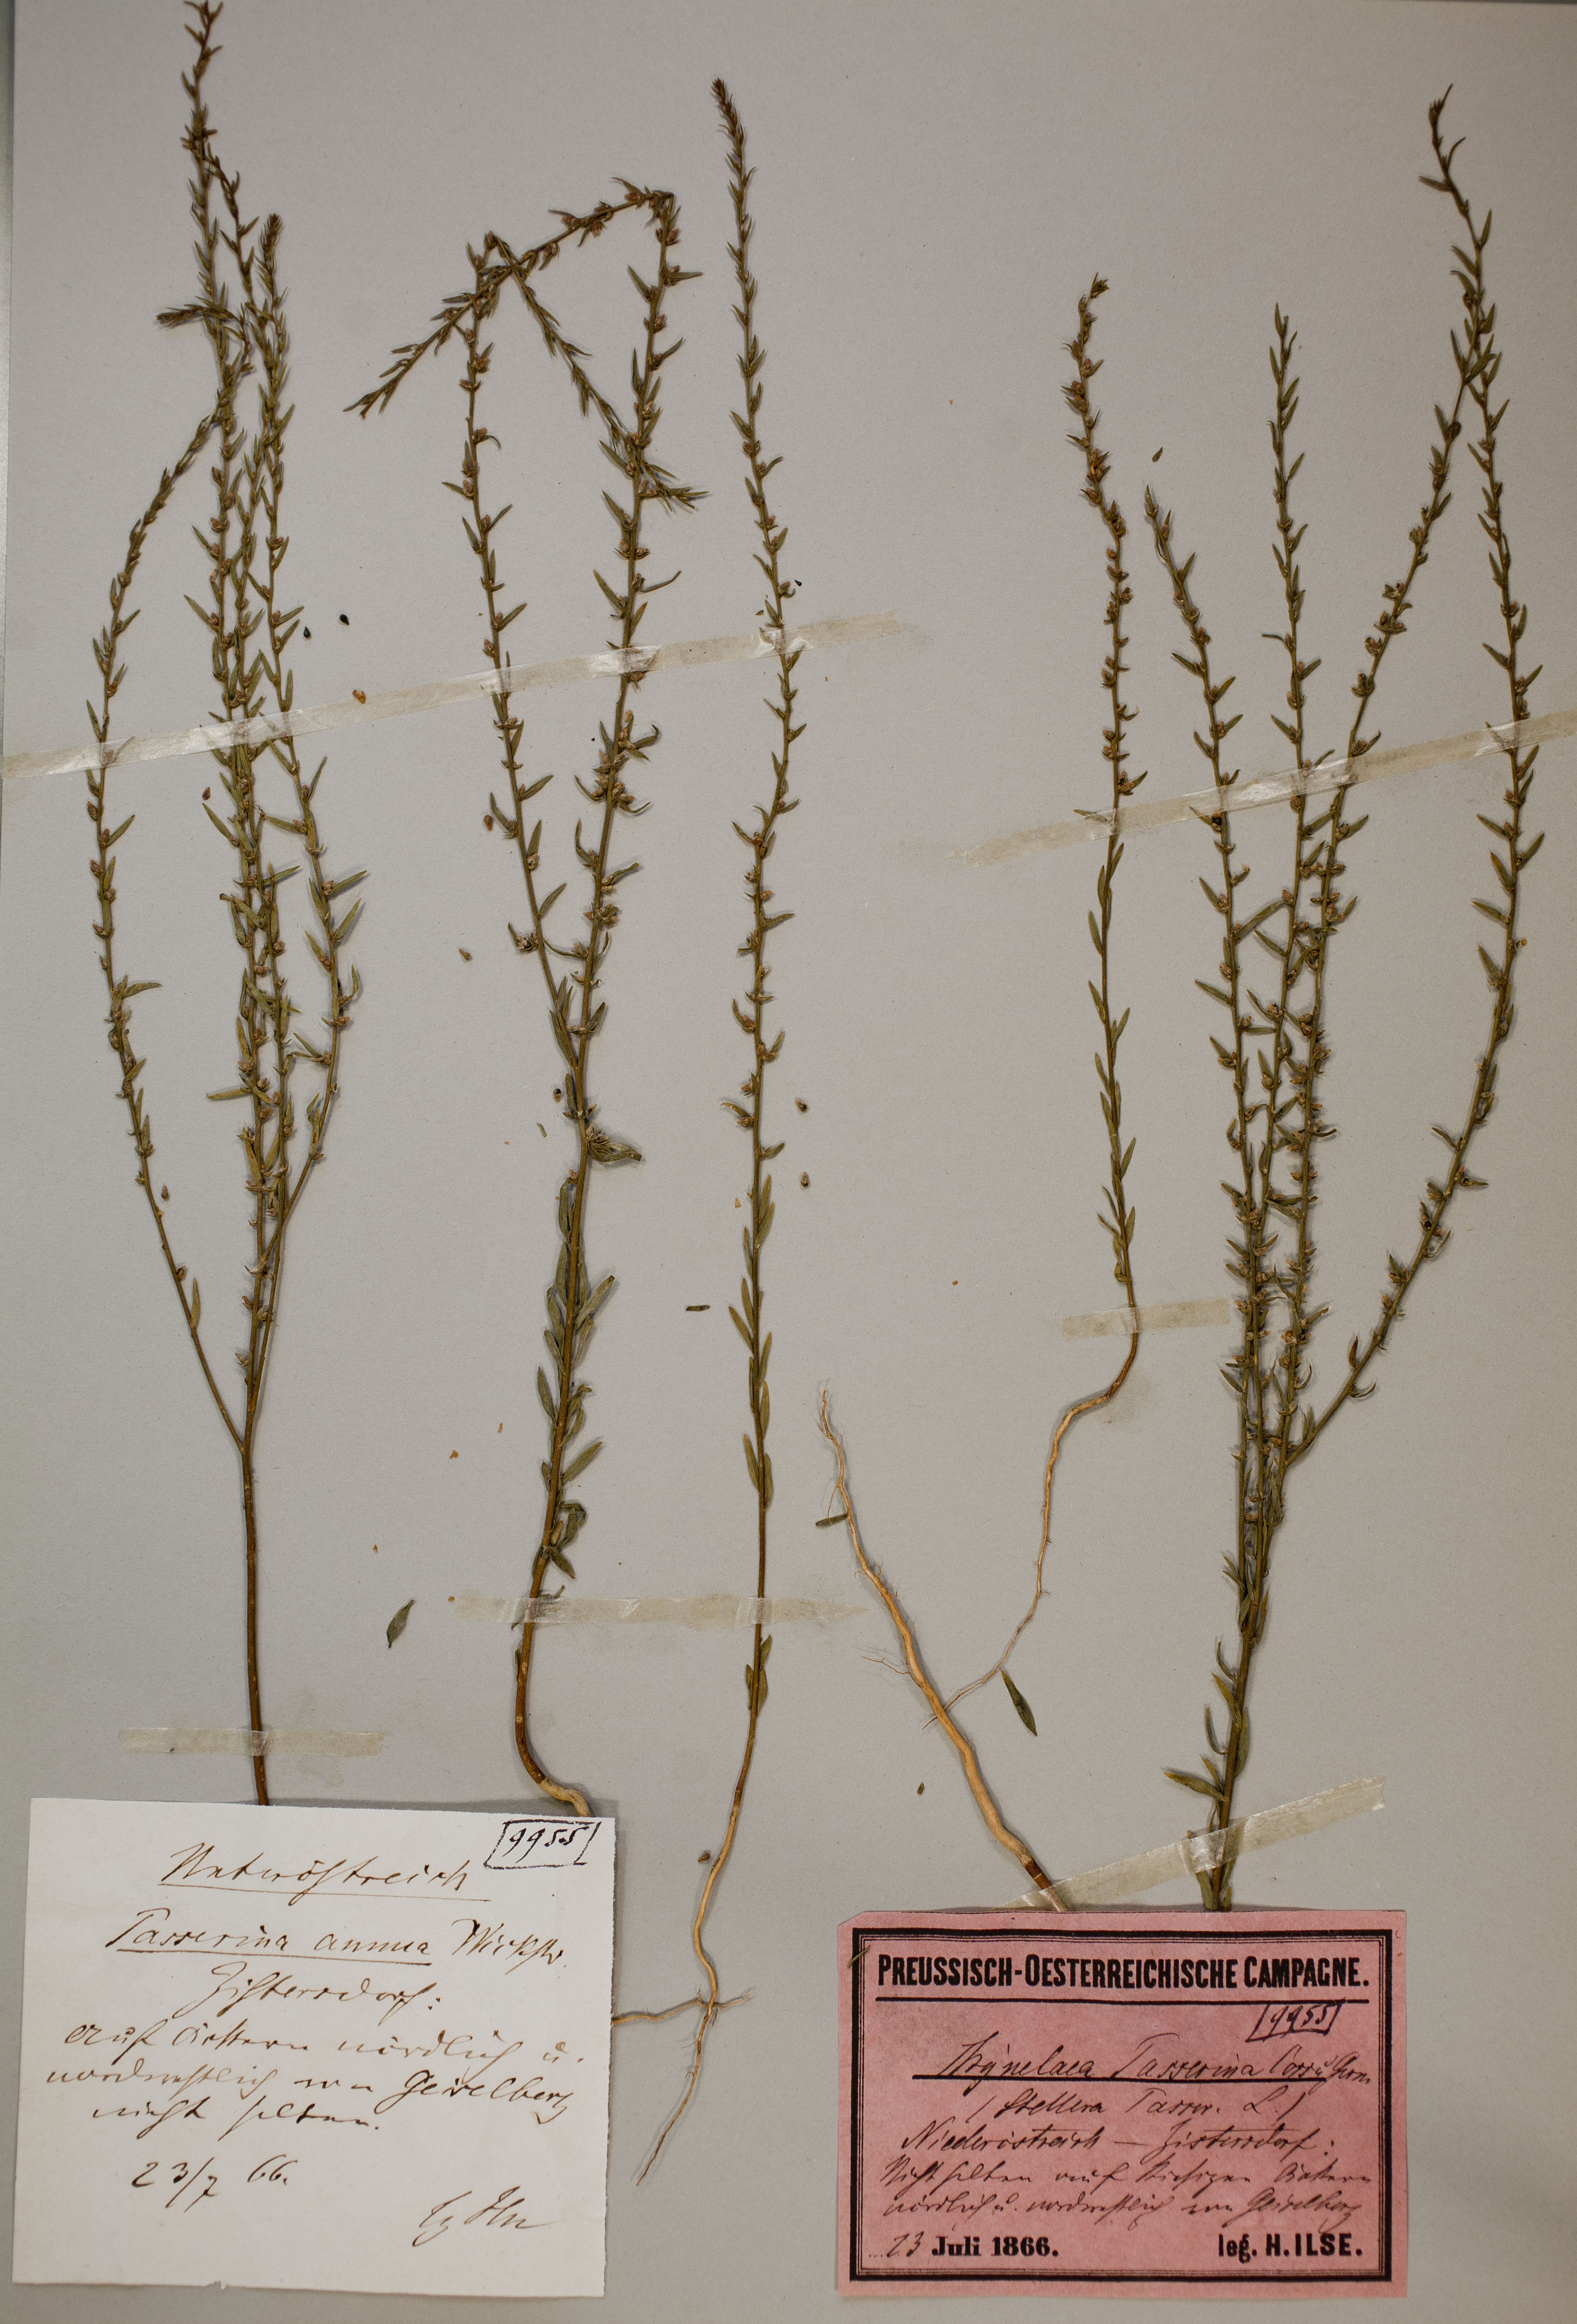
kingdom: Plantae
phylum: Tracheophyta
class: Magnoliopsida
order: Malvales
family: Thymelaeaceae
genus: Thymelaea
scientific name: Thymelaea passerina
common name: Annual thymelaea
